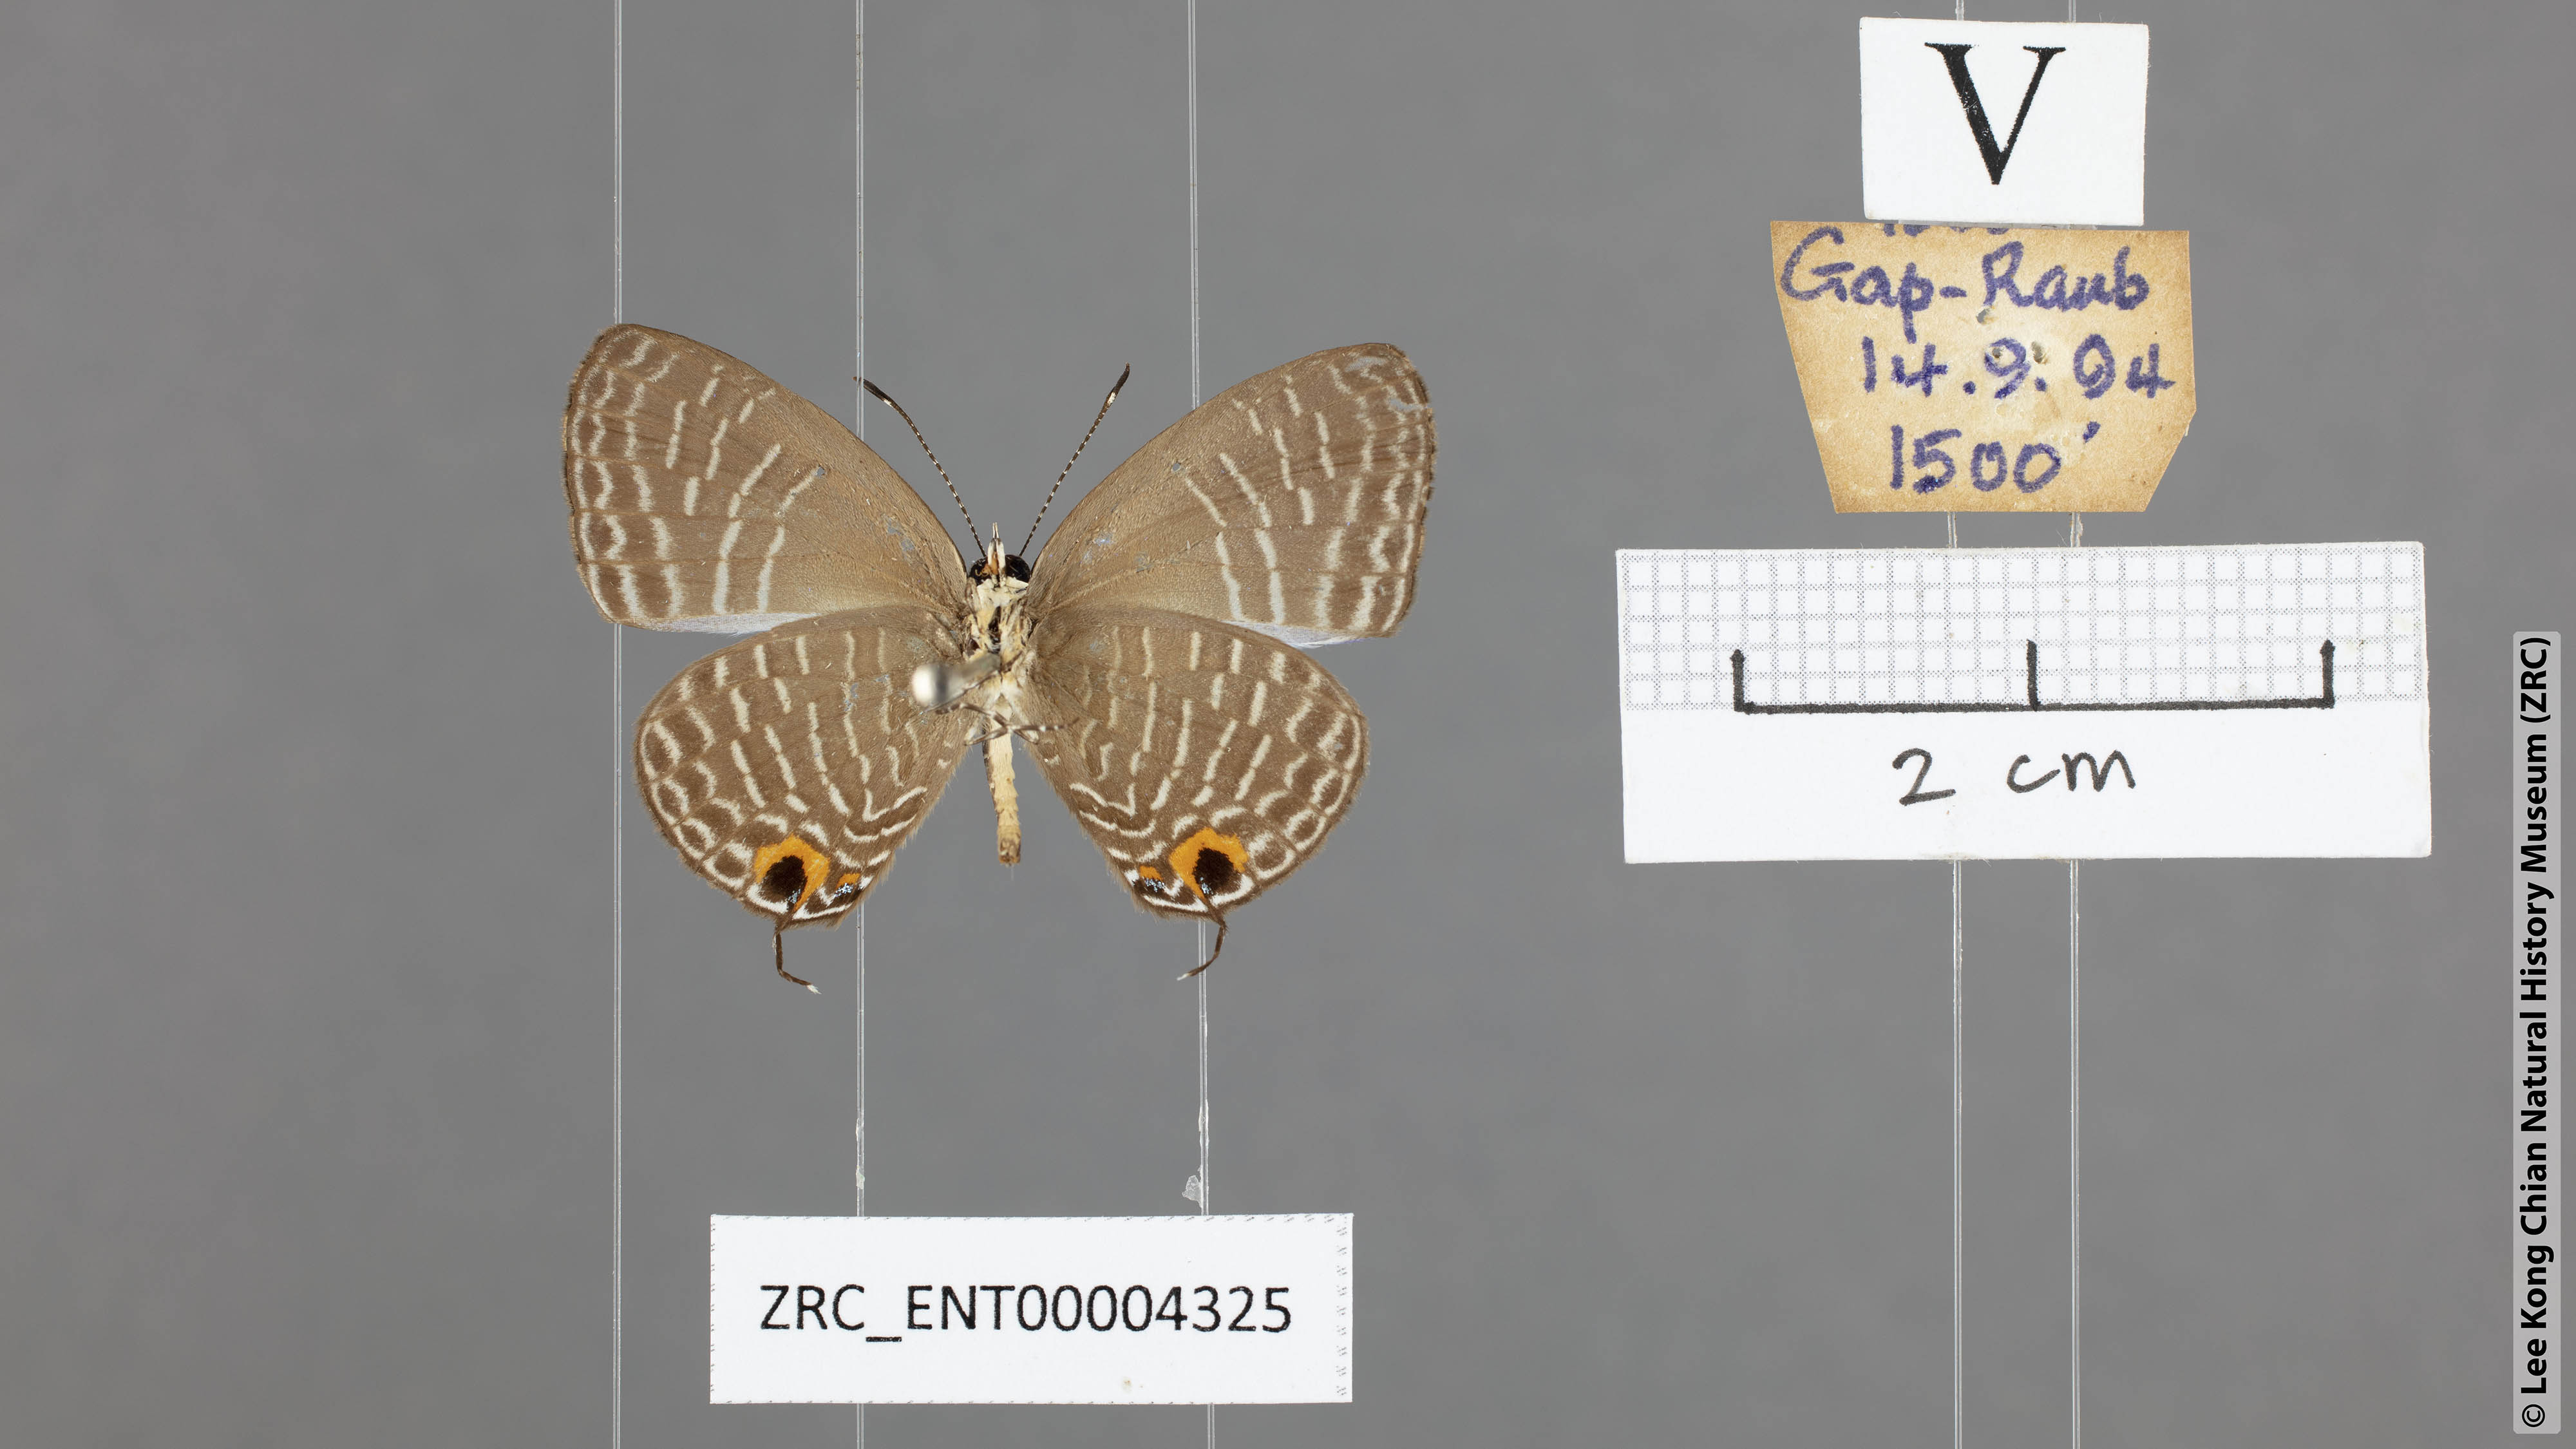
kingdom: Animalia
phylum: Arthropoda
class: Insecta
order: Lepidoptera
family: Lycaenidae
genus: Jamides
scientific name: Jamides caerulea
